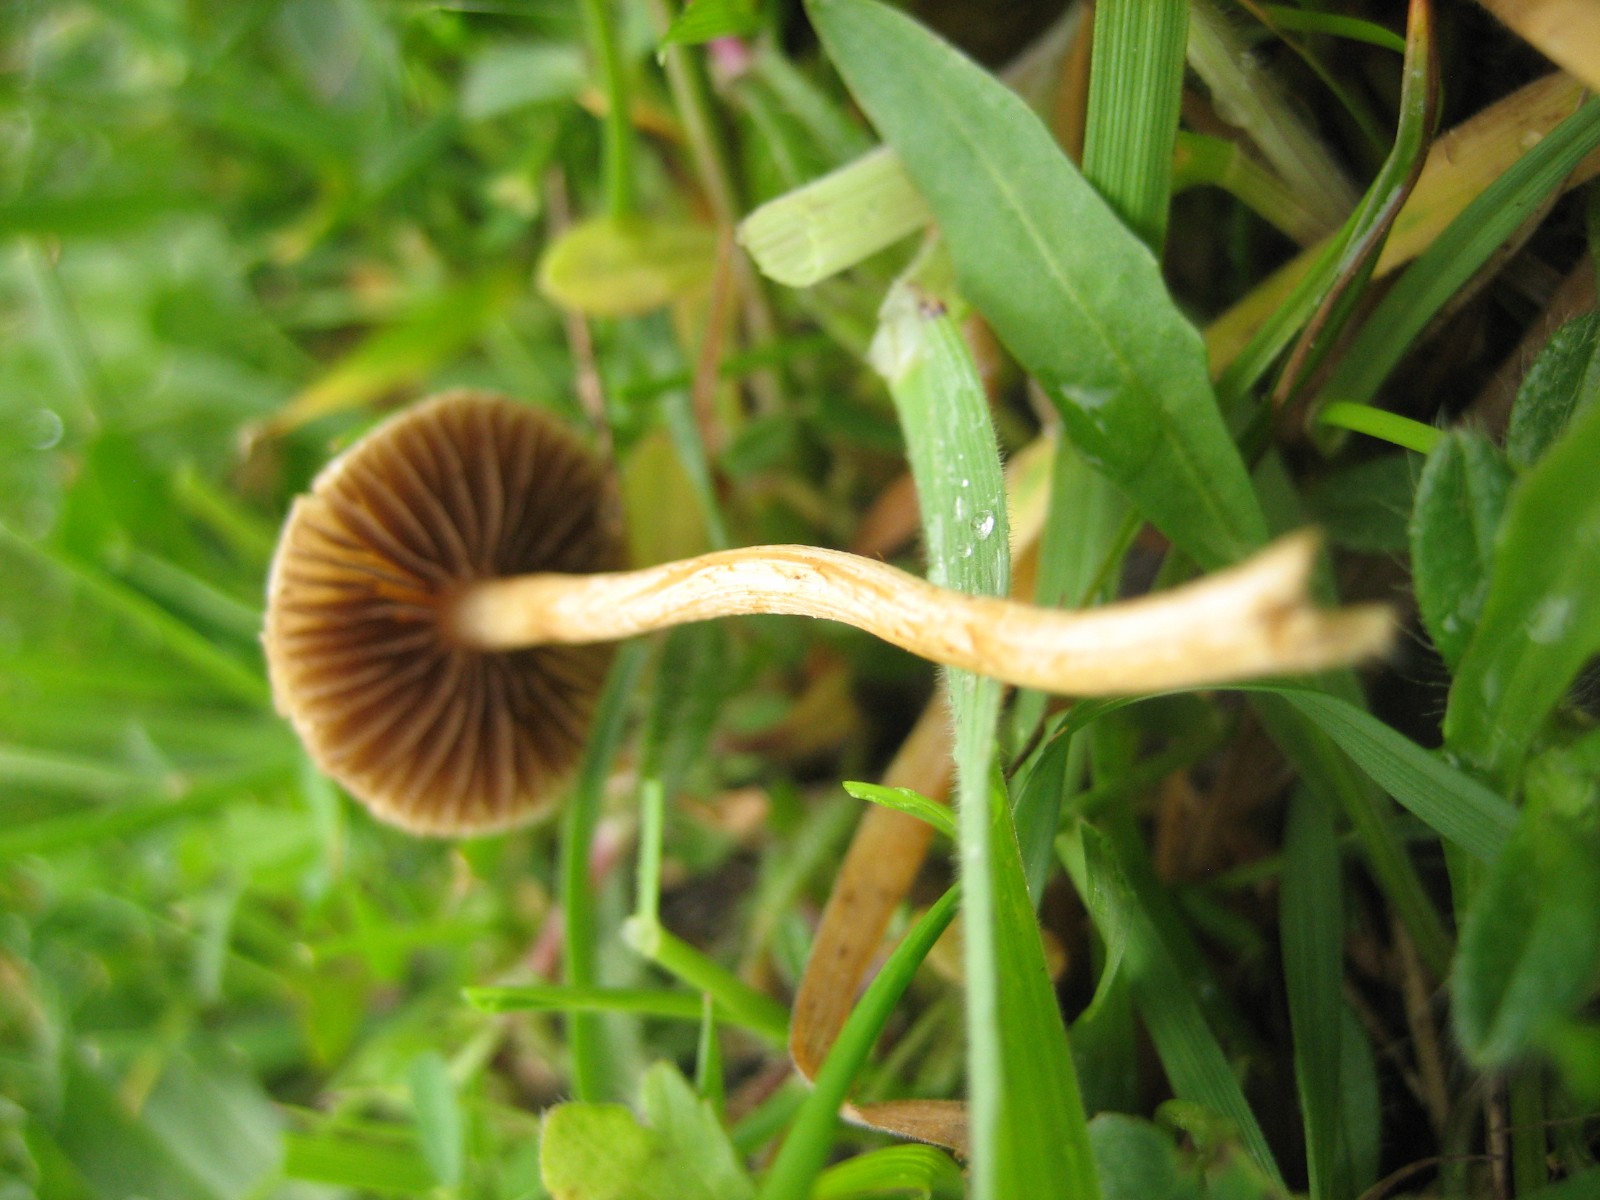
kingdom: Fungi
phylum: Basidiomycota
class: Agaricomycetes
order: Agaricales
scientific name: Agaricales
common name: champignonordenen
